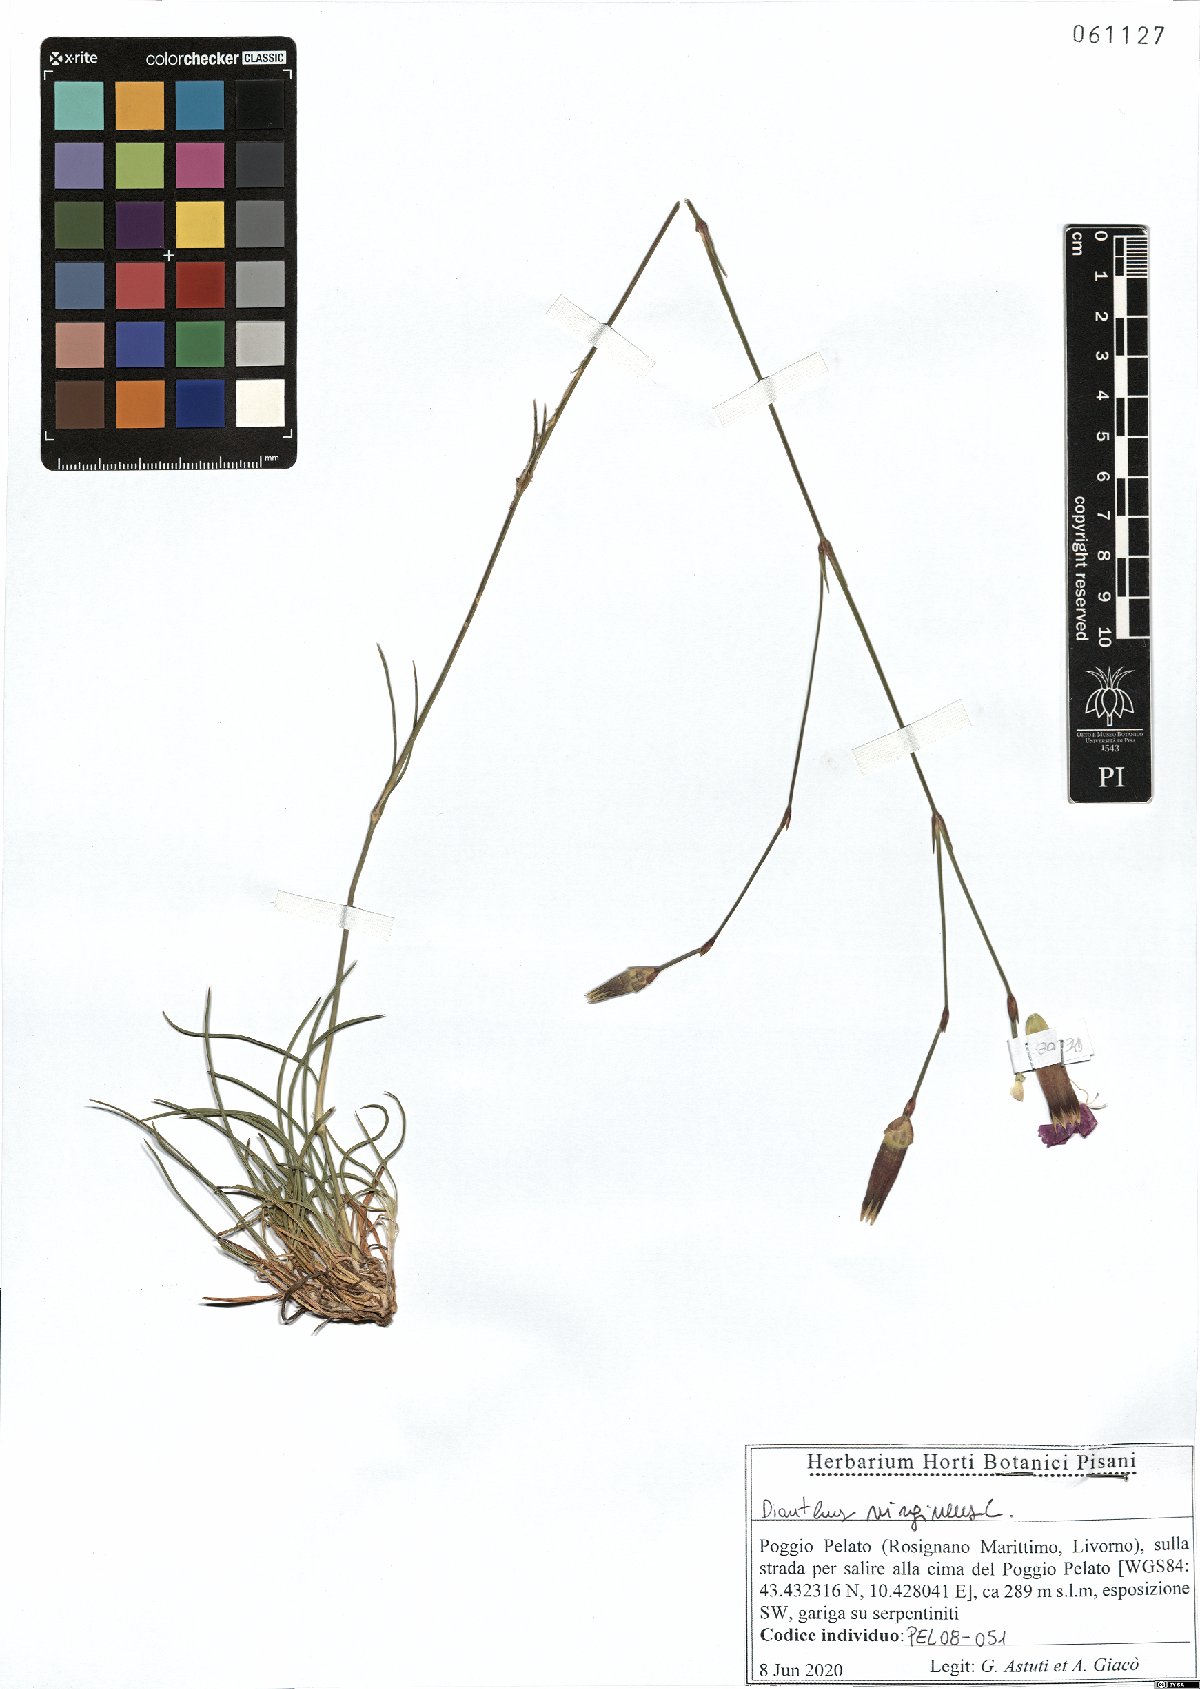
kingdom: Plantae
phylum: Tracheophyta
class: Magnoliopsida
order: Caryophyllales
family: Caryophyllaceae
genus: Dianthus
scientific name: Dianthus virgineus
